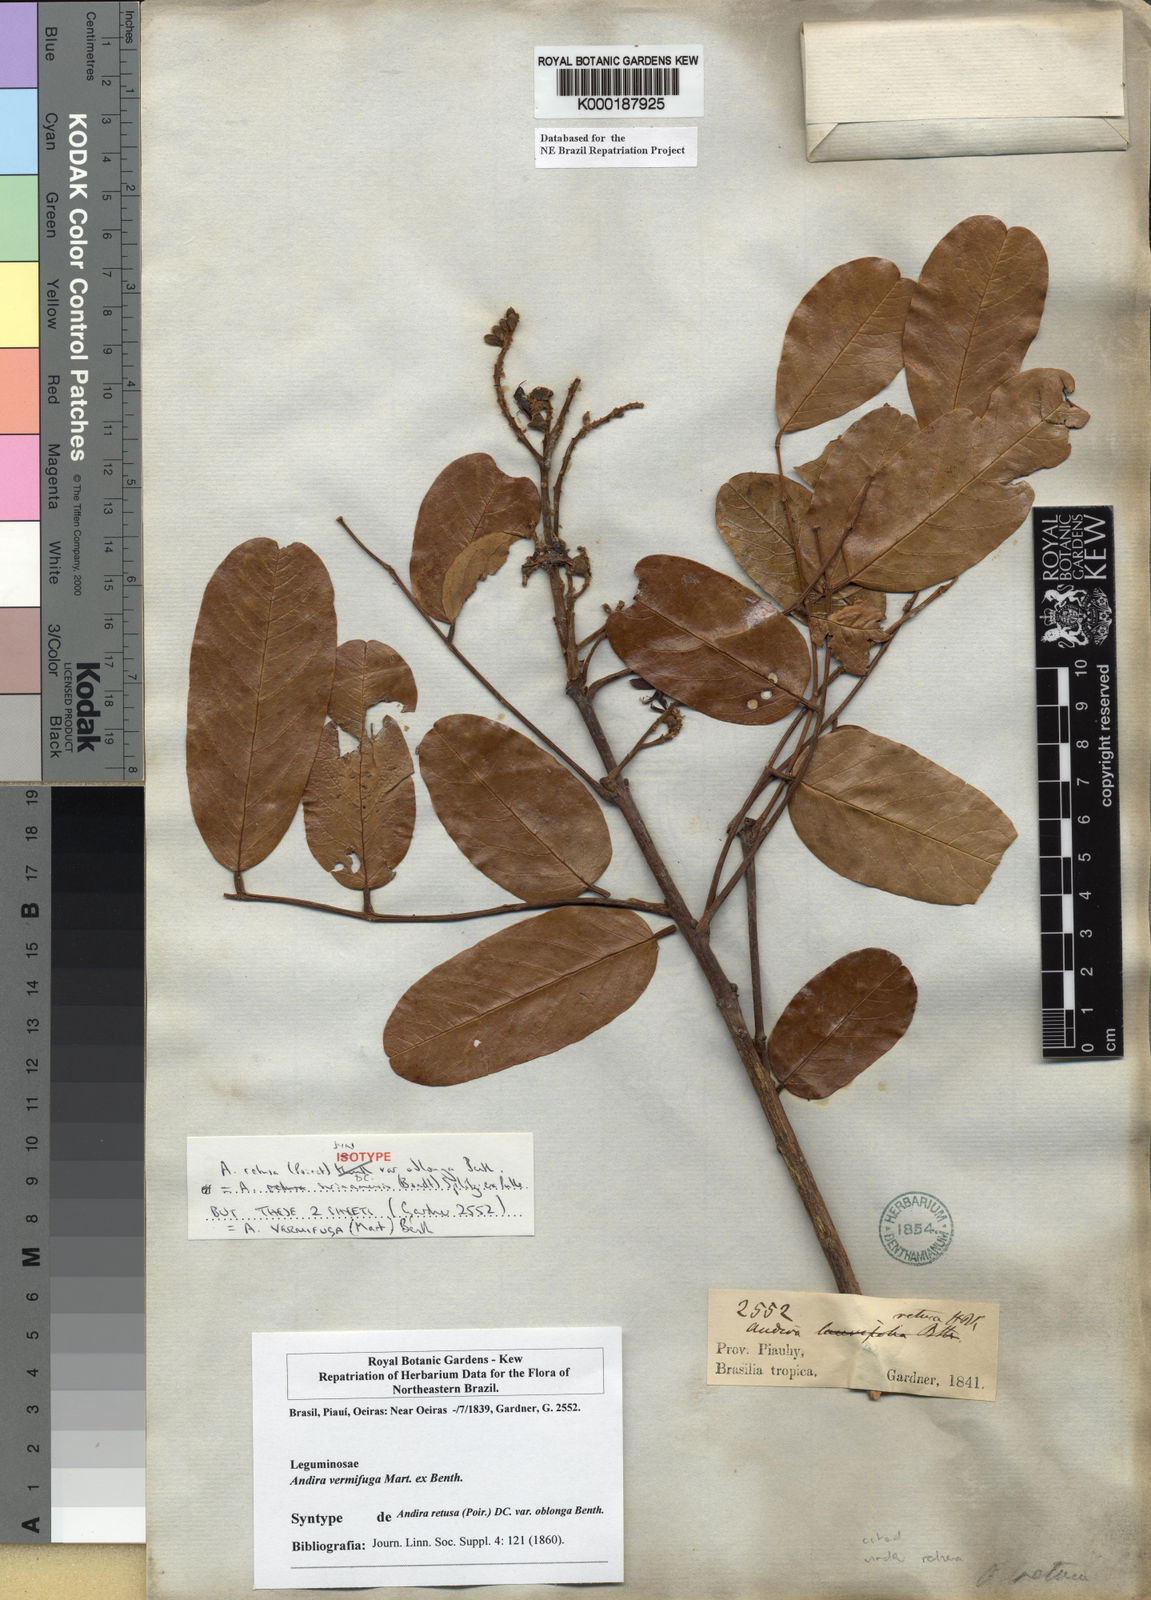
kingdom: Plantae
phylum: Tracheophyta
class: Magnoliopsida
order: Fabales
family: Fabaceae
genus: Andira
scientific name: Andira vermifuga
